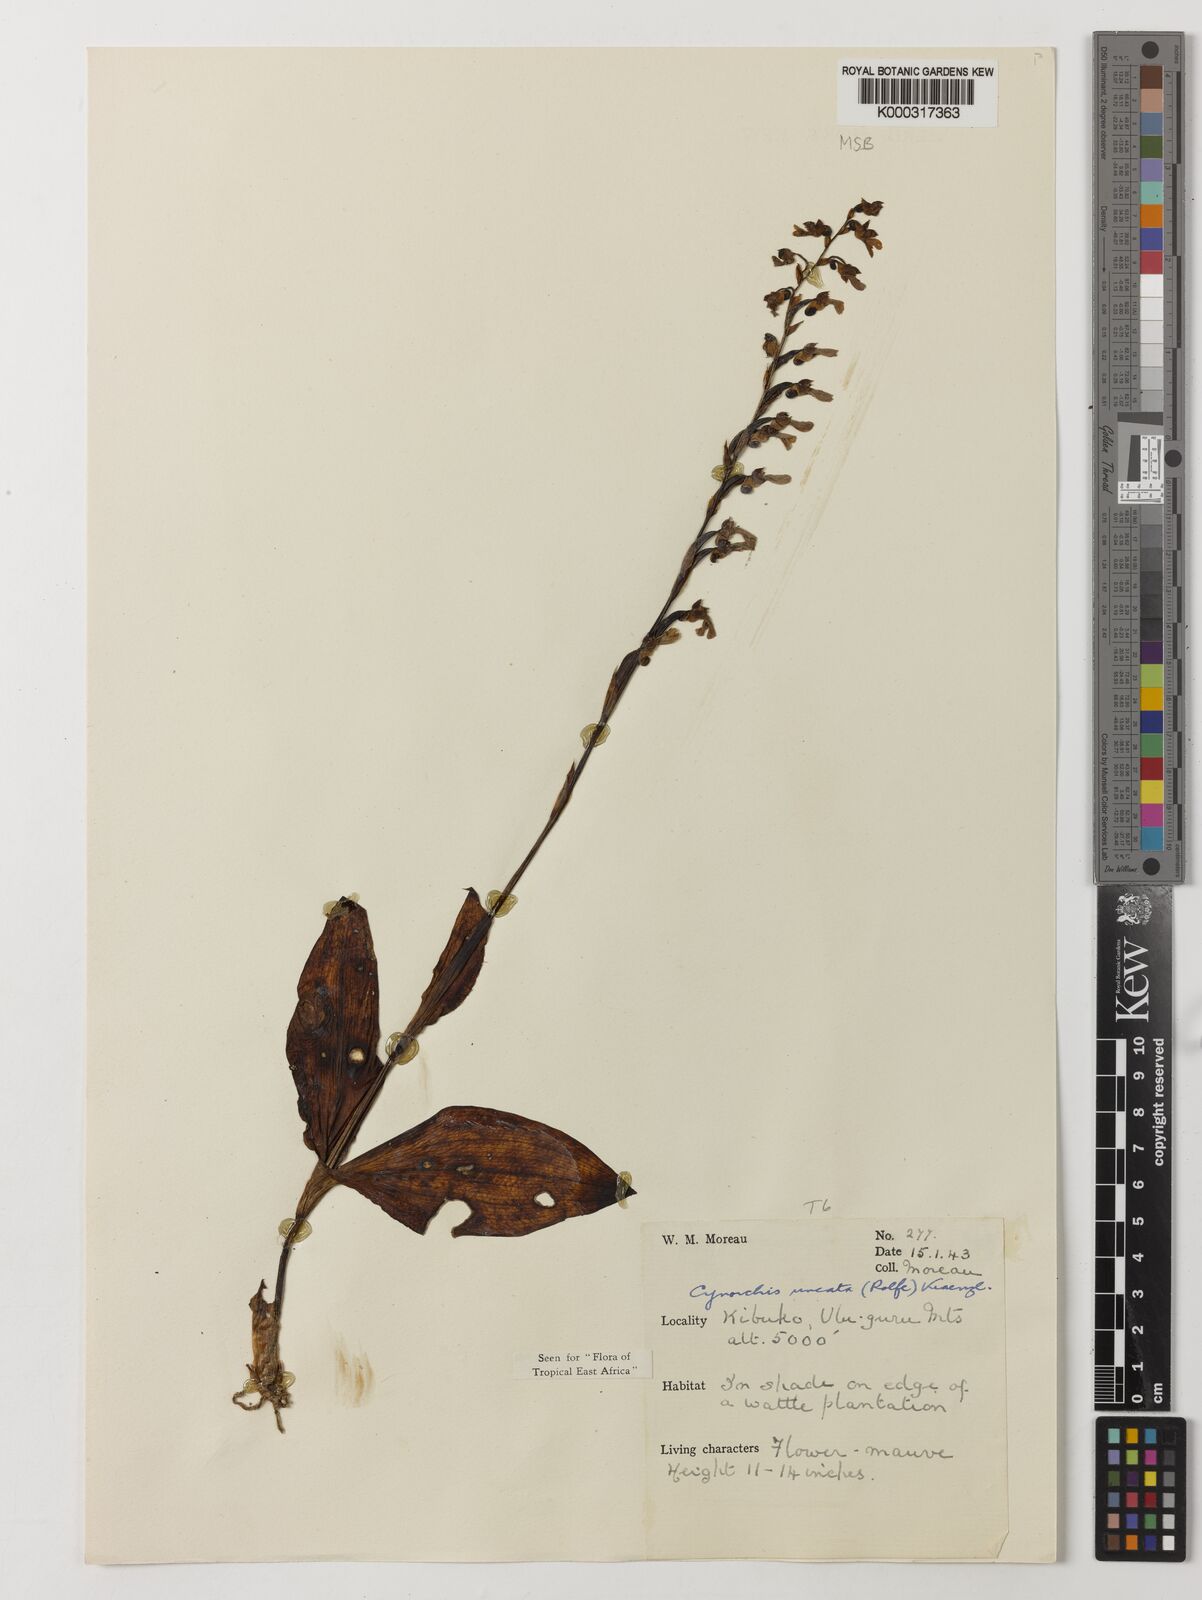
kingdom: Plantae
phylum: Tracheophyta
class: Liliopsida
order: Asparagales
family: Orchidaceae
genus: Cynorkis
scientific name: Cynorkis uncata
